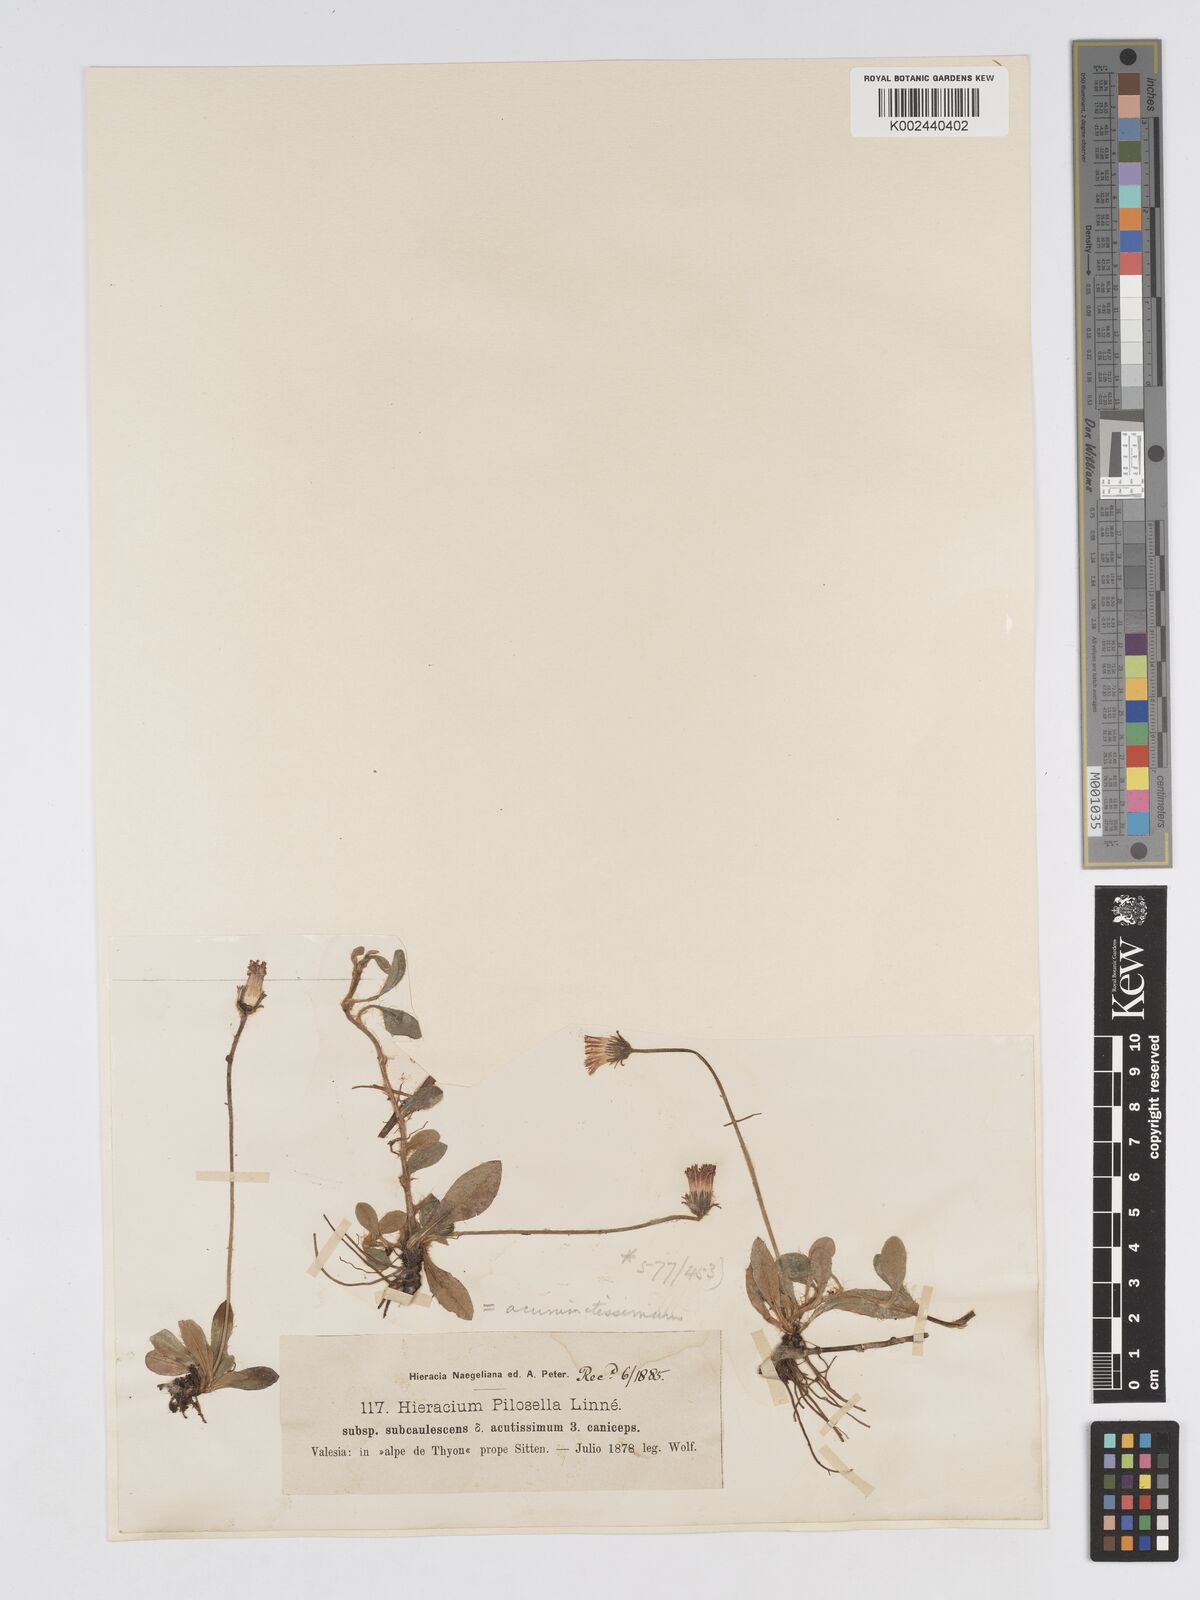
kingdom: Plantae
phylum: Tracheophyta
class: Magnoliopsida
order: Asterales
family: Asteraceae
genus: Pilosella
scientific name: Pilosella officinarum
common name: Mouse-ear hawkweed
